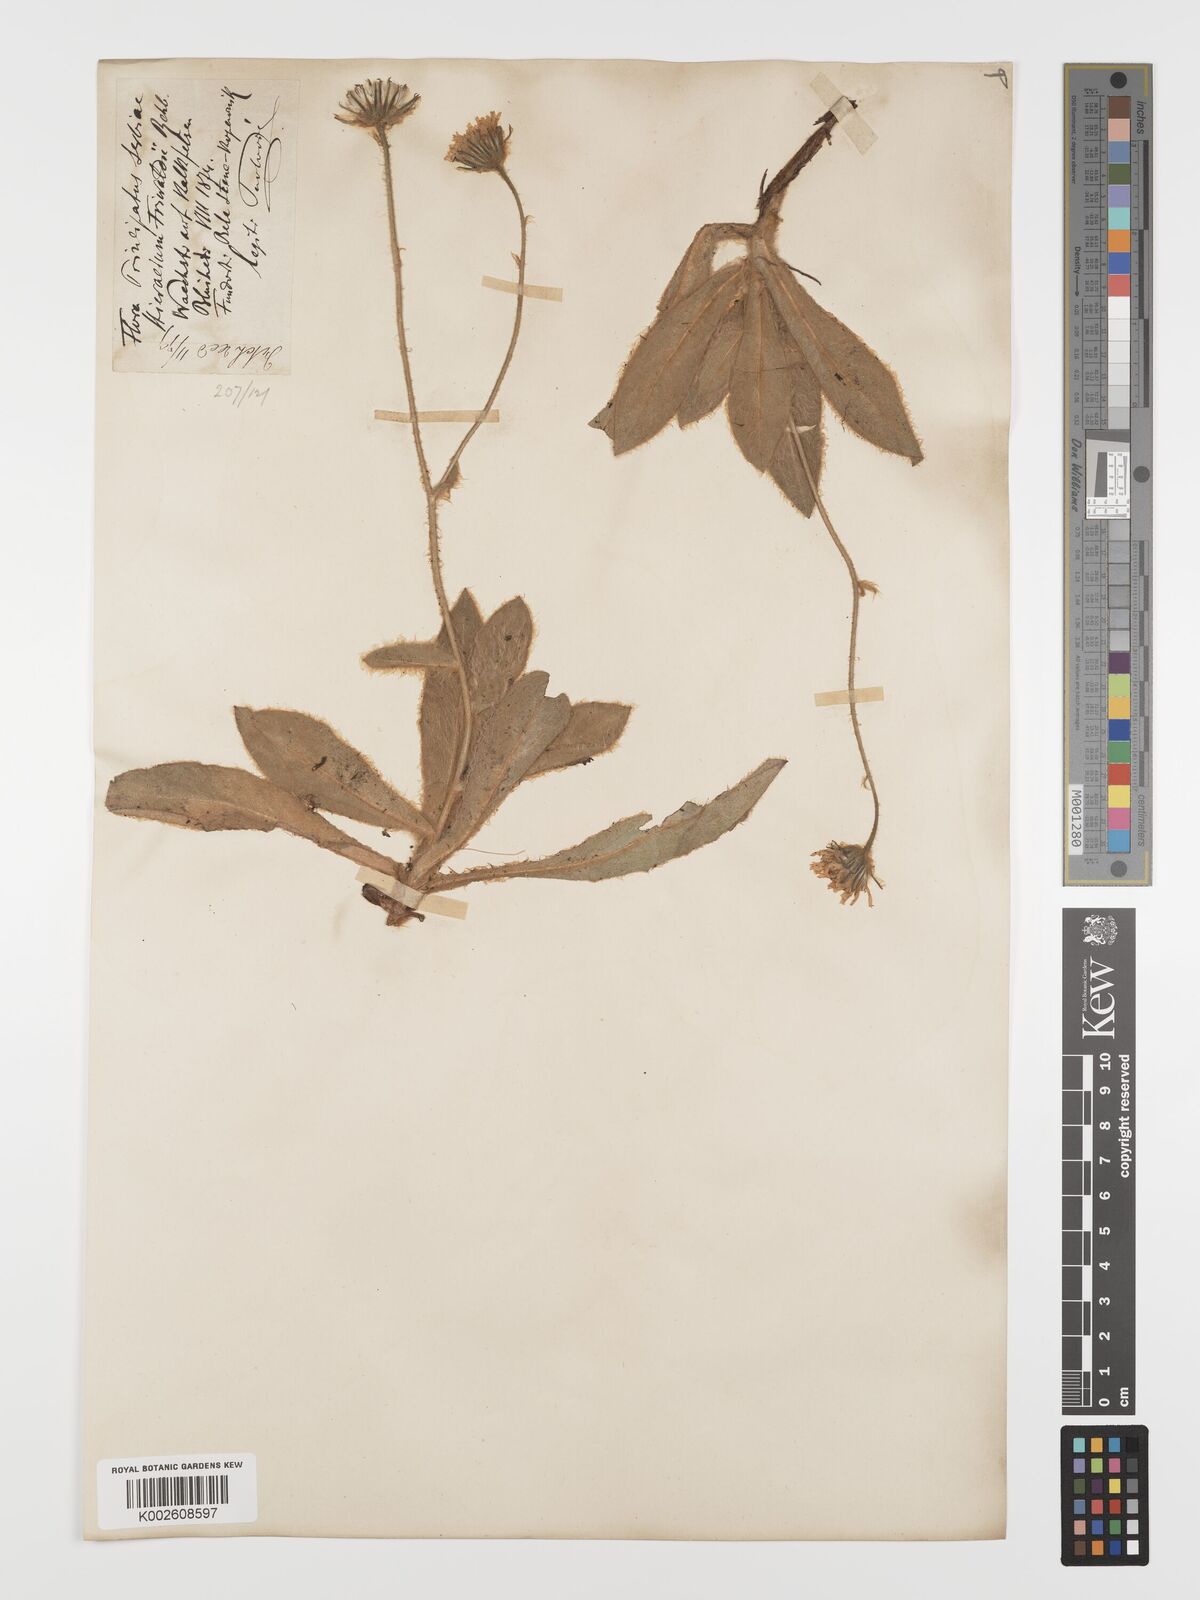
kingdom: Plantae
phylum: Tracheophyta
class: Magnoliopsida
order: Asterales
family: Asteraceae
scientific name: Asteraceae
